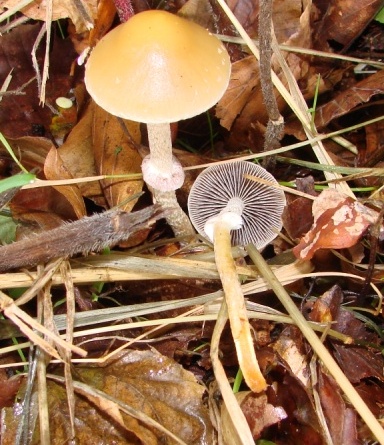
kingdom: Fungi
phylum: Basidiomycota
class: Agaricomycetes
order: Agaricales
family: Strophariaceae
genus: Leratiomyces
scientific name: Leratiomyces squamosus
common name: skællet bredblad
